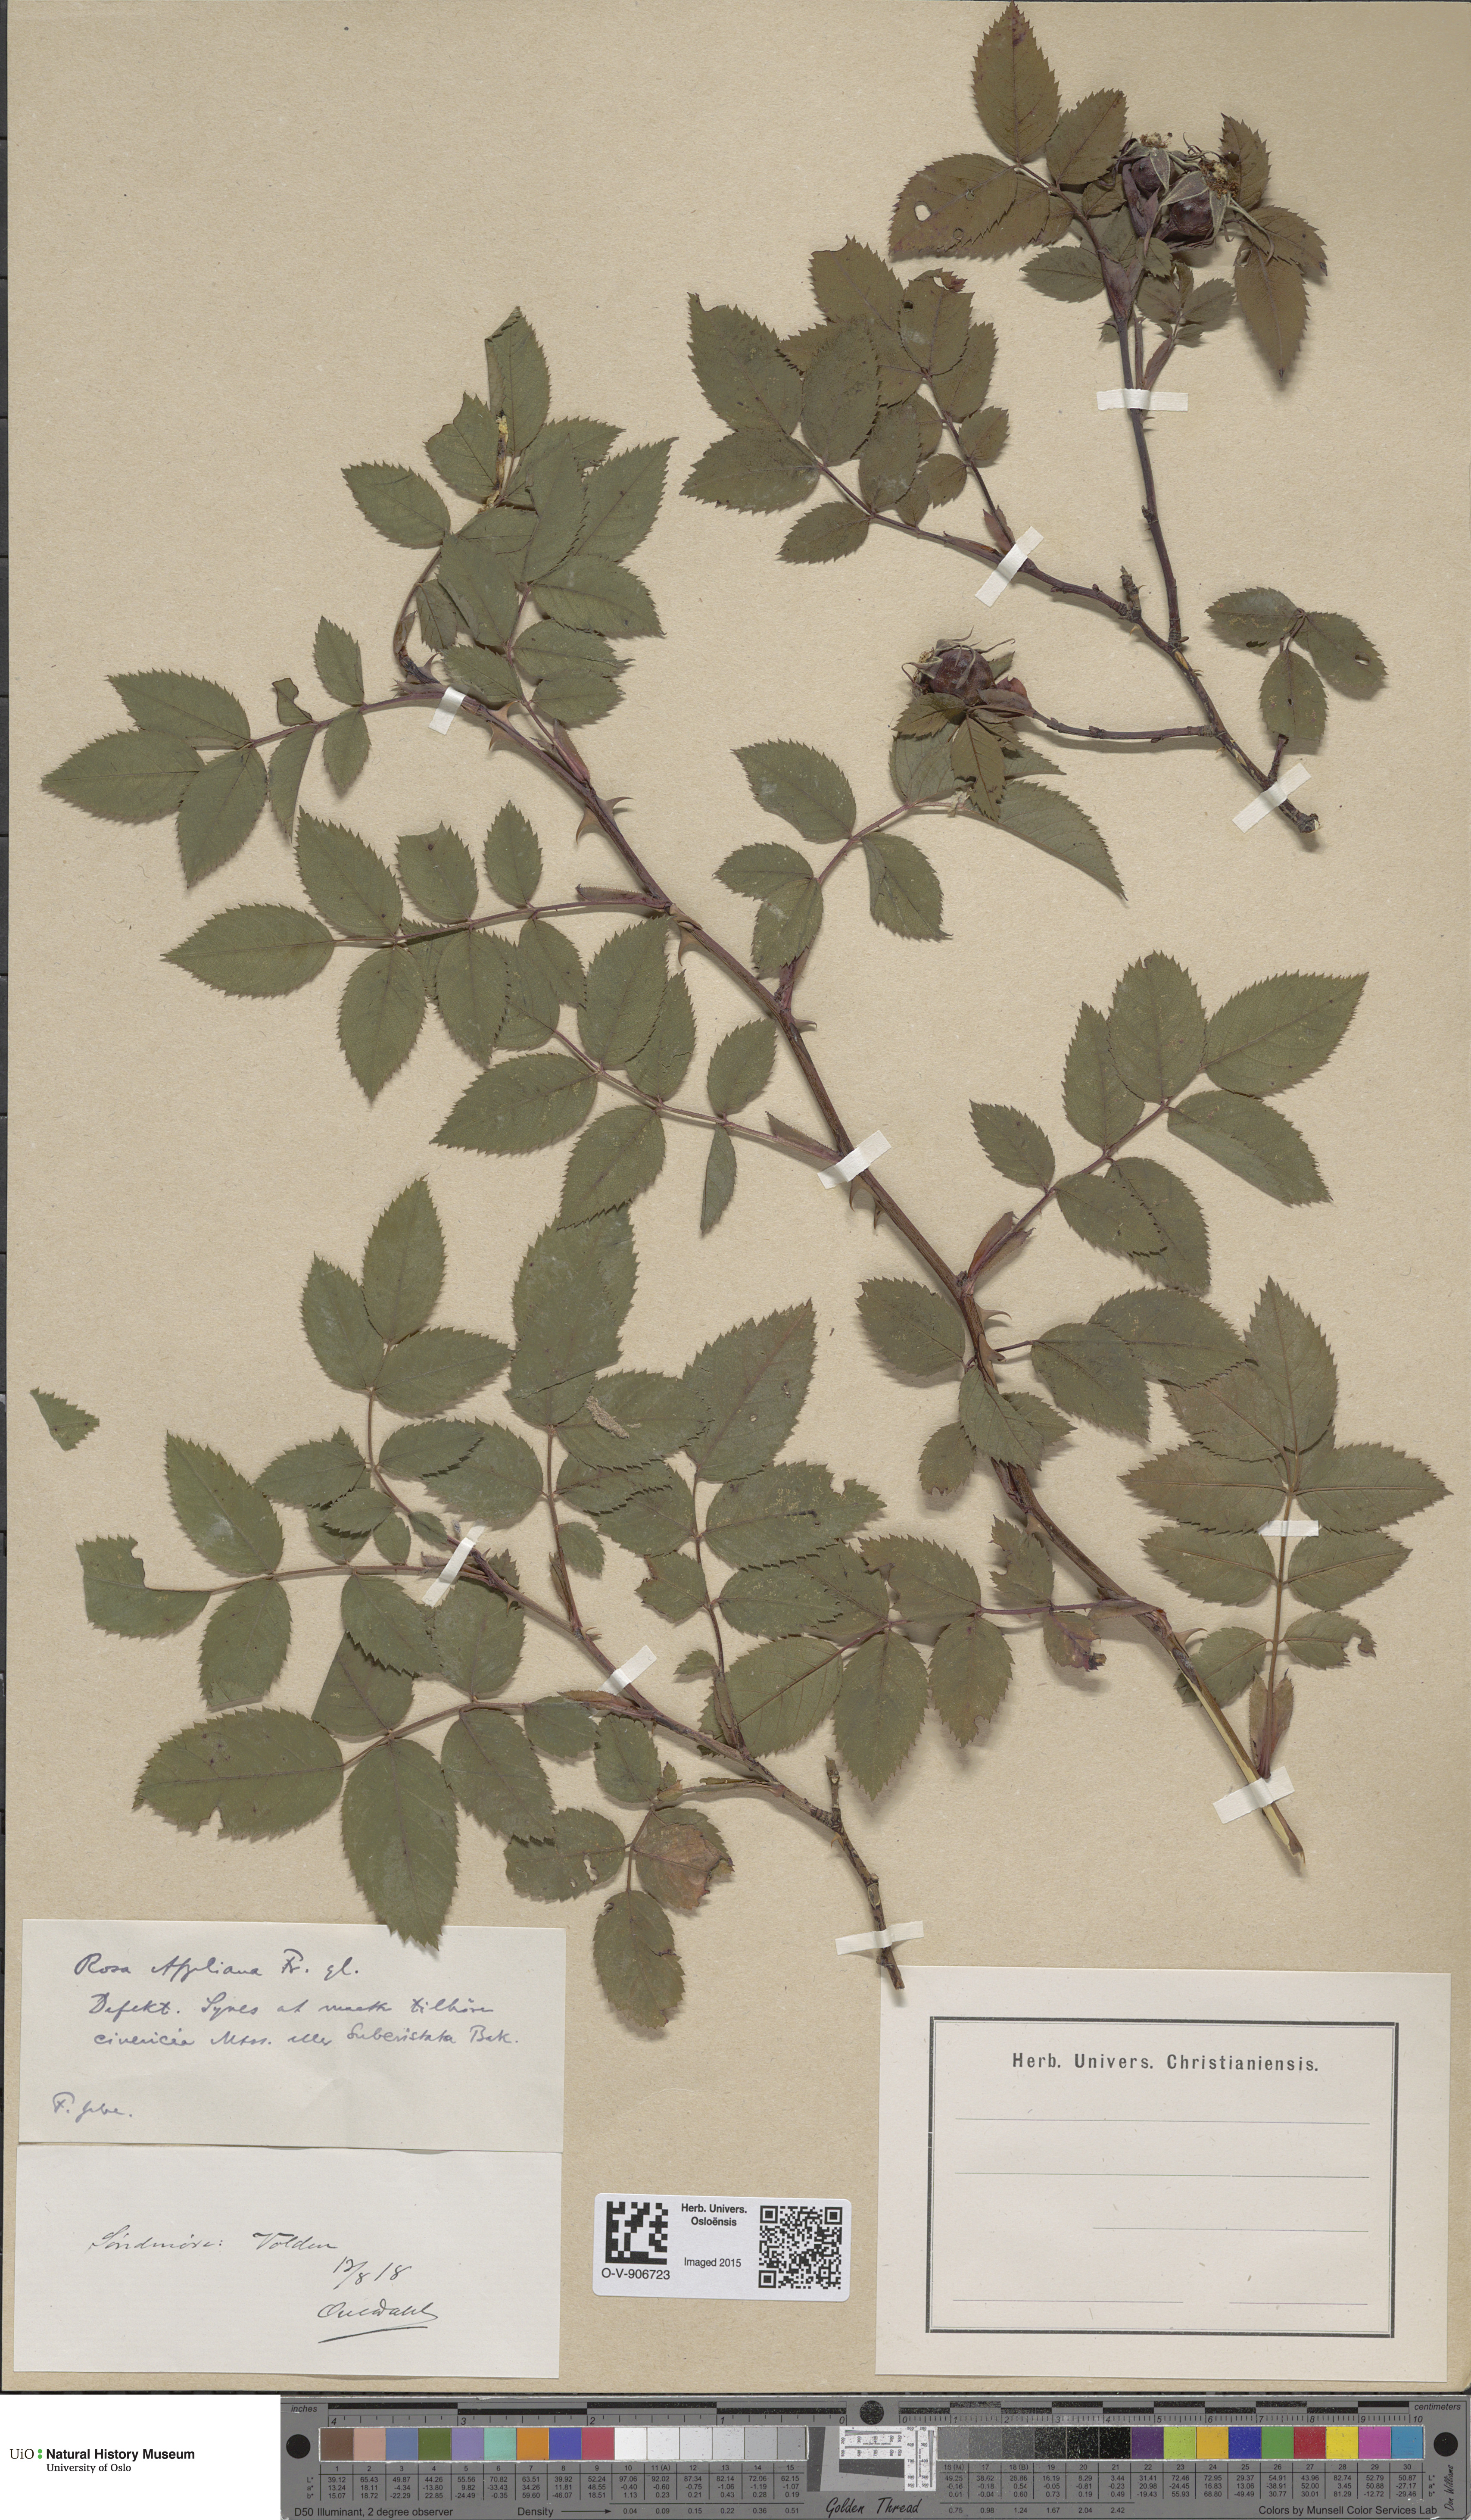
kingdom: Plantae
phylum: Tracheophyta
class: Magnoliopsida
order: Rosales
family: Rosaceae
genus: Rosa
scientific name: Rosa
